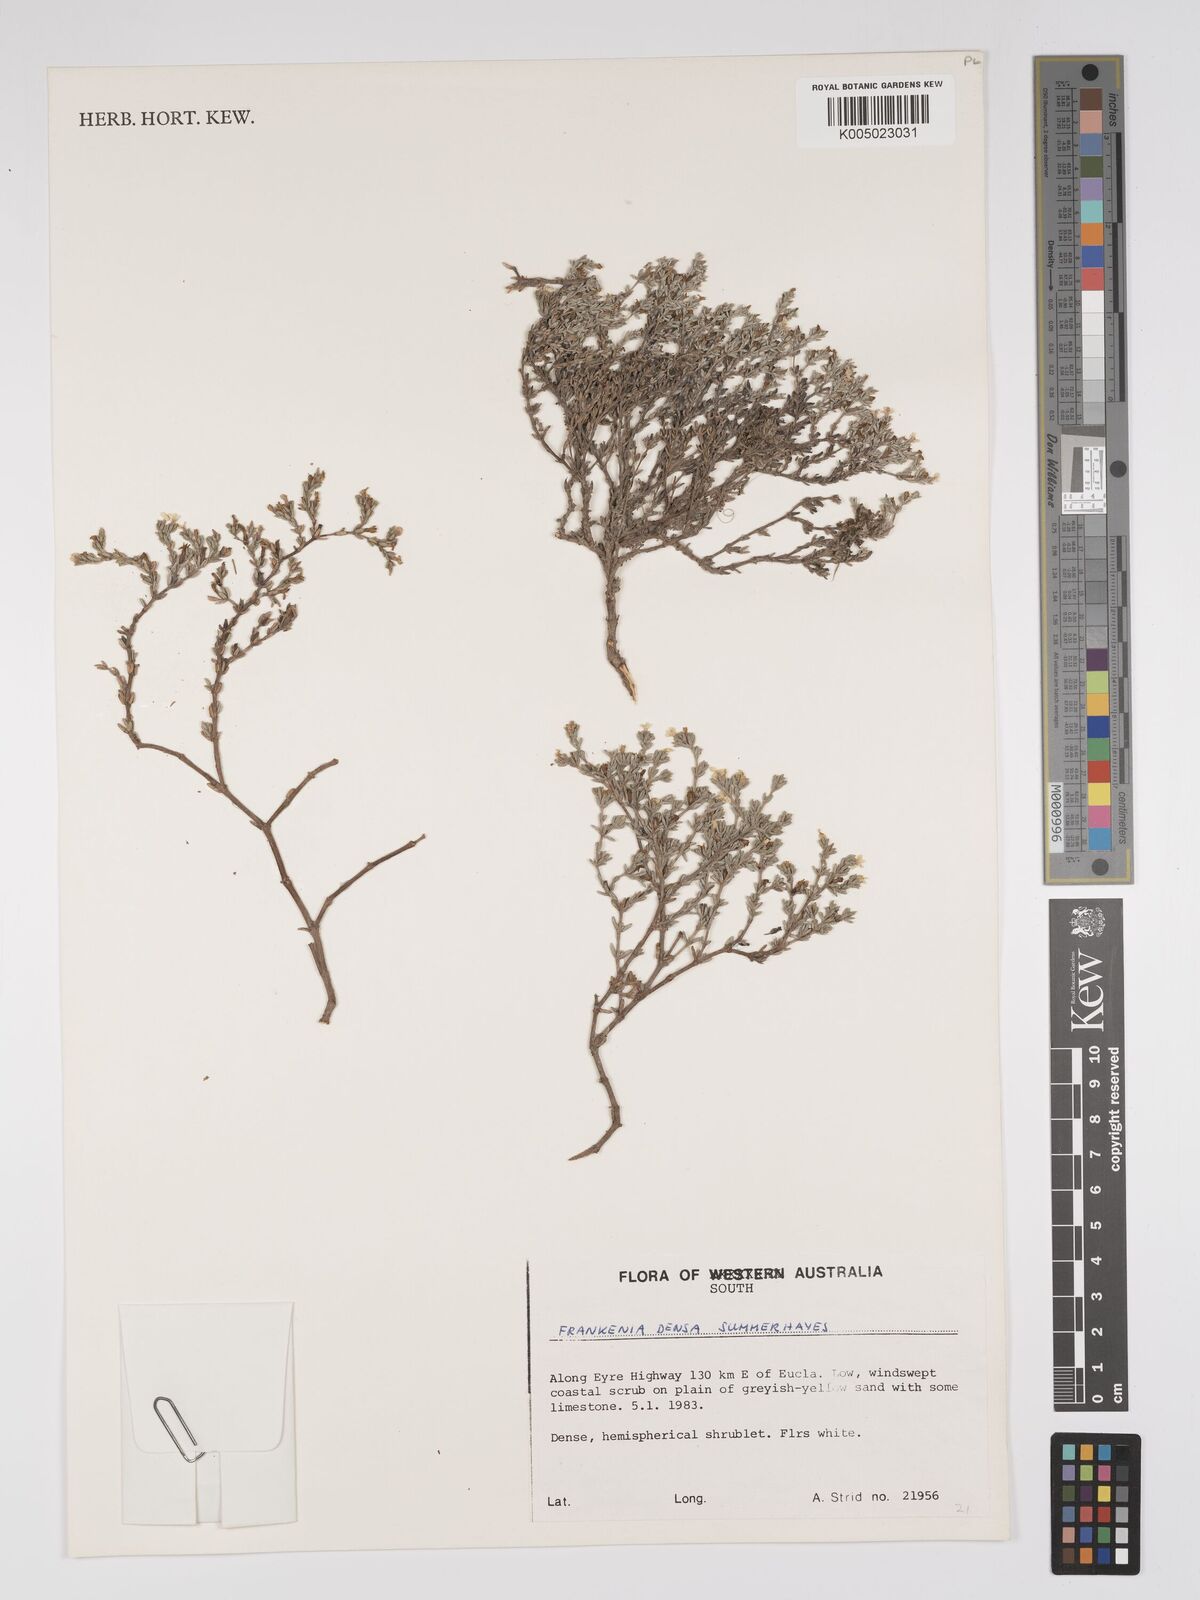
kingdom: Plantae
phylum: Tracheophyta
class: Magnoliopsida
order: Caryophyllales
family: Frankeniaceae
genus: Frankenia
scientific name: Frankenia
